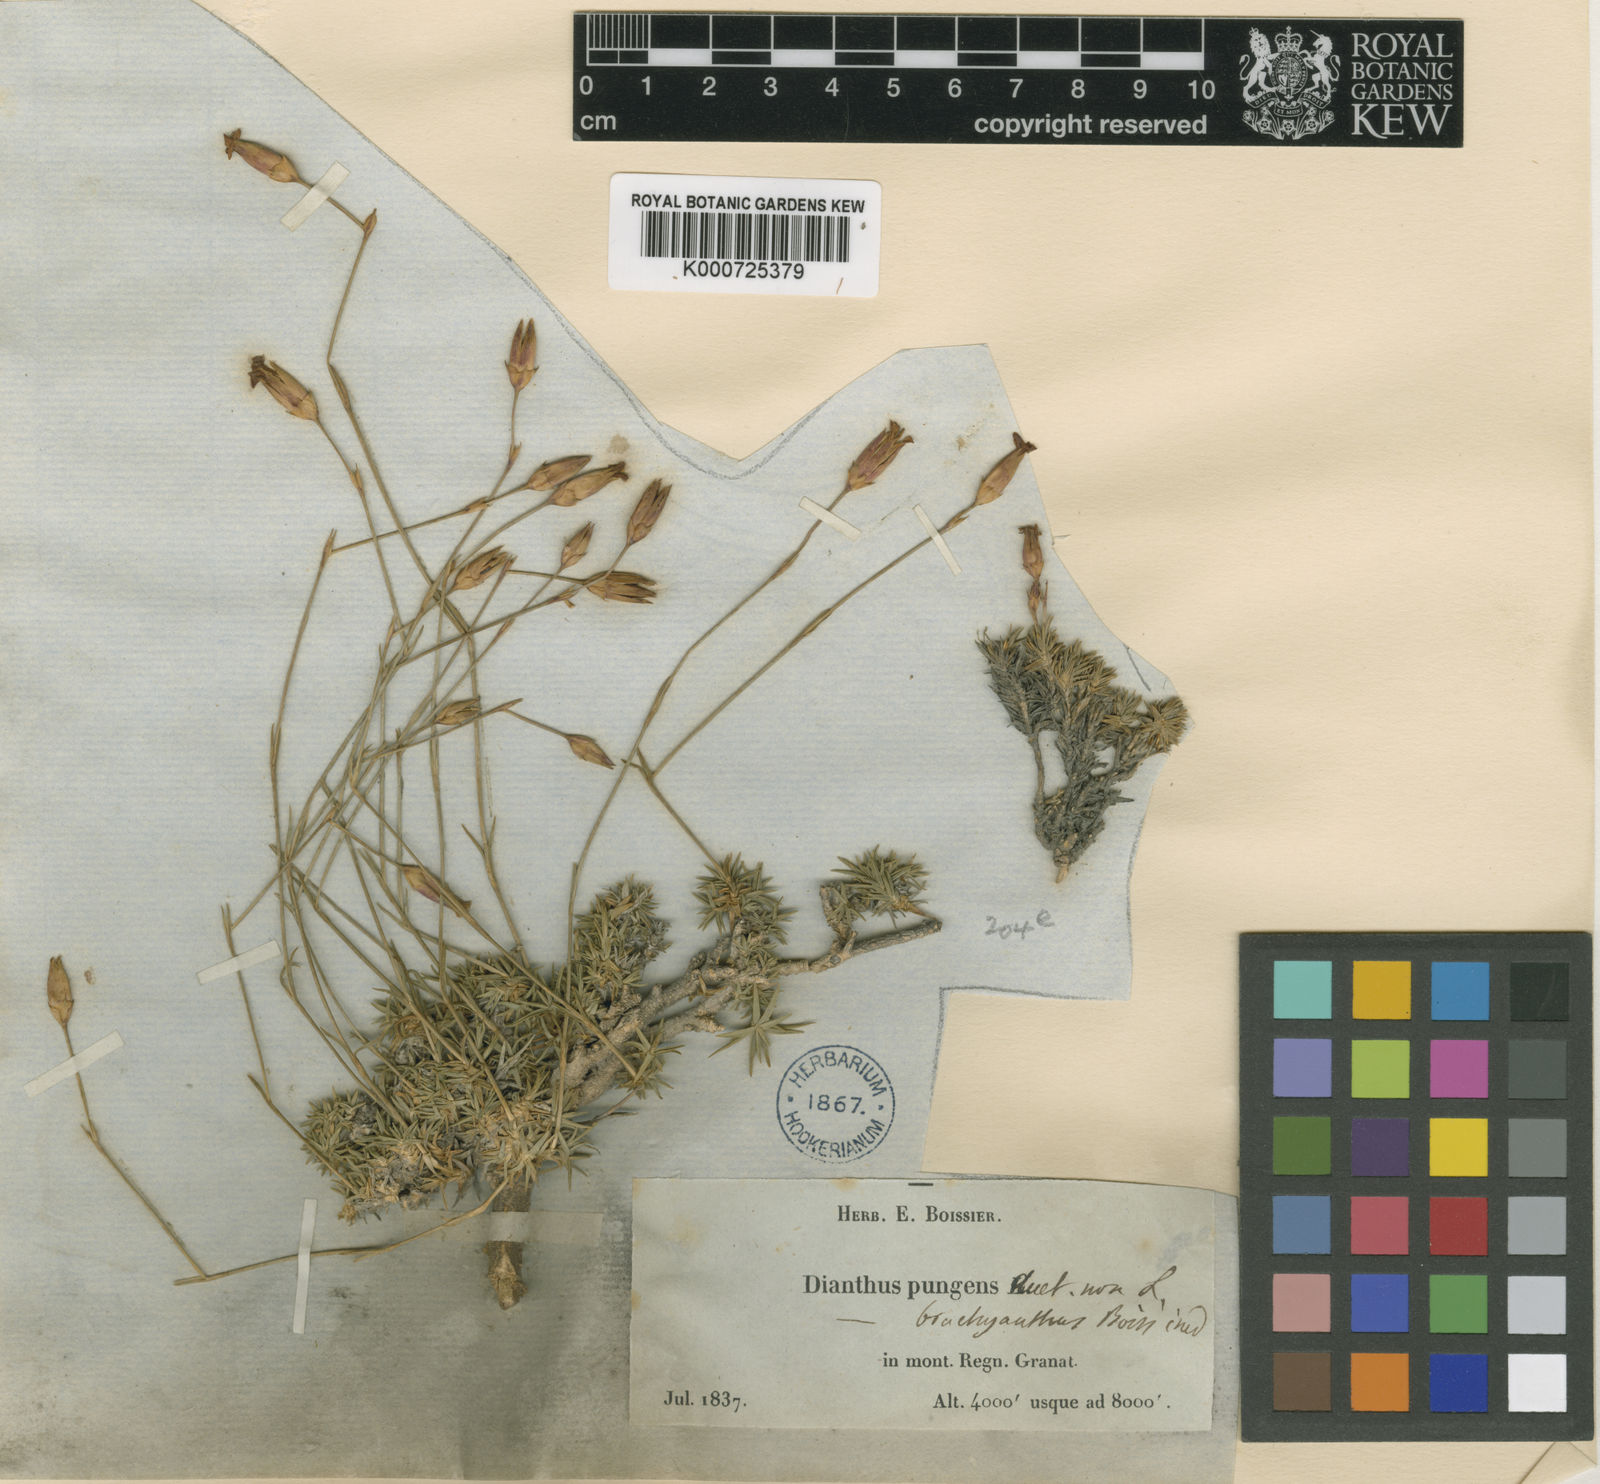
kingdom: Plantae
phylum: Tracheophyta
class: Magnoliopsida
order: Caryophyllales
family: Caryophyllaceae
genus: Dianthus
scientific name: Dianthus pungens
